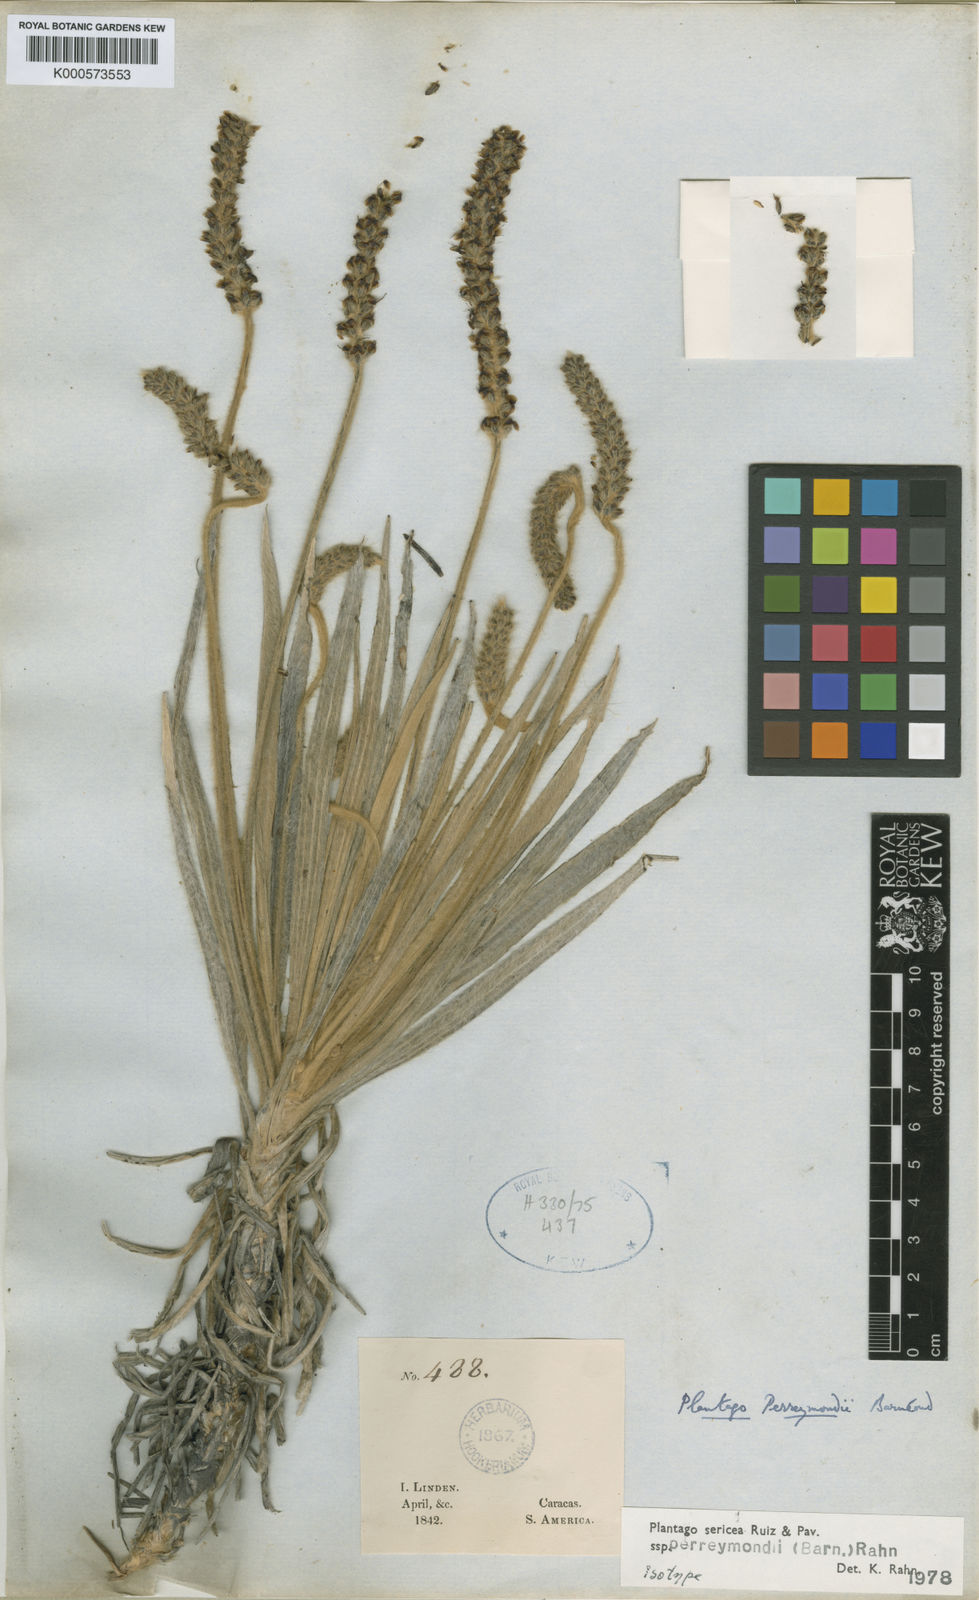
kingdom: Plantae
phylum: Tracheophyta
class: Magnoliopsida
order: Lamiales
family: Plantaginaceae
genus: Plantago
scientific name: Plantago sericea
